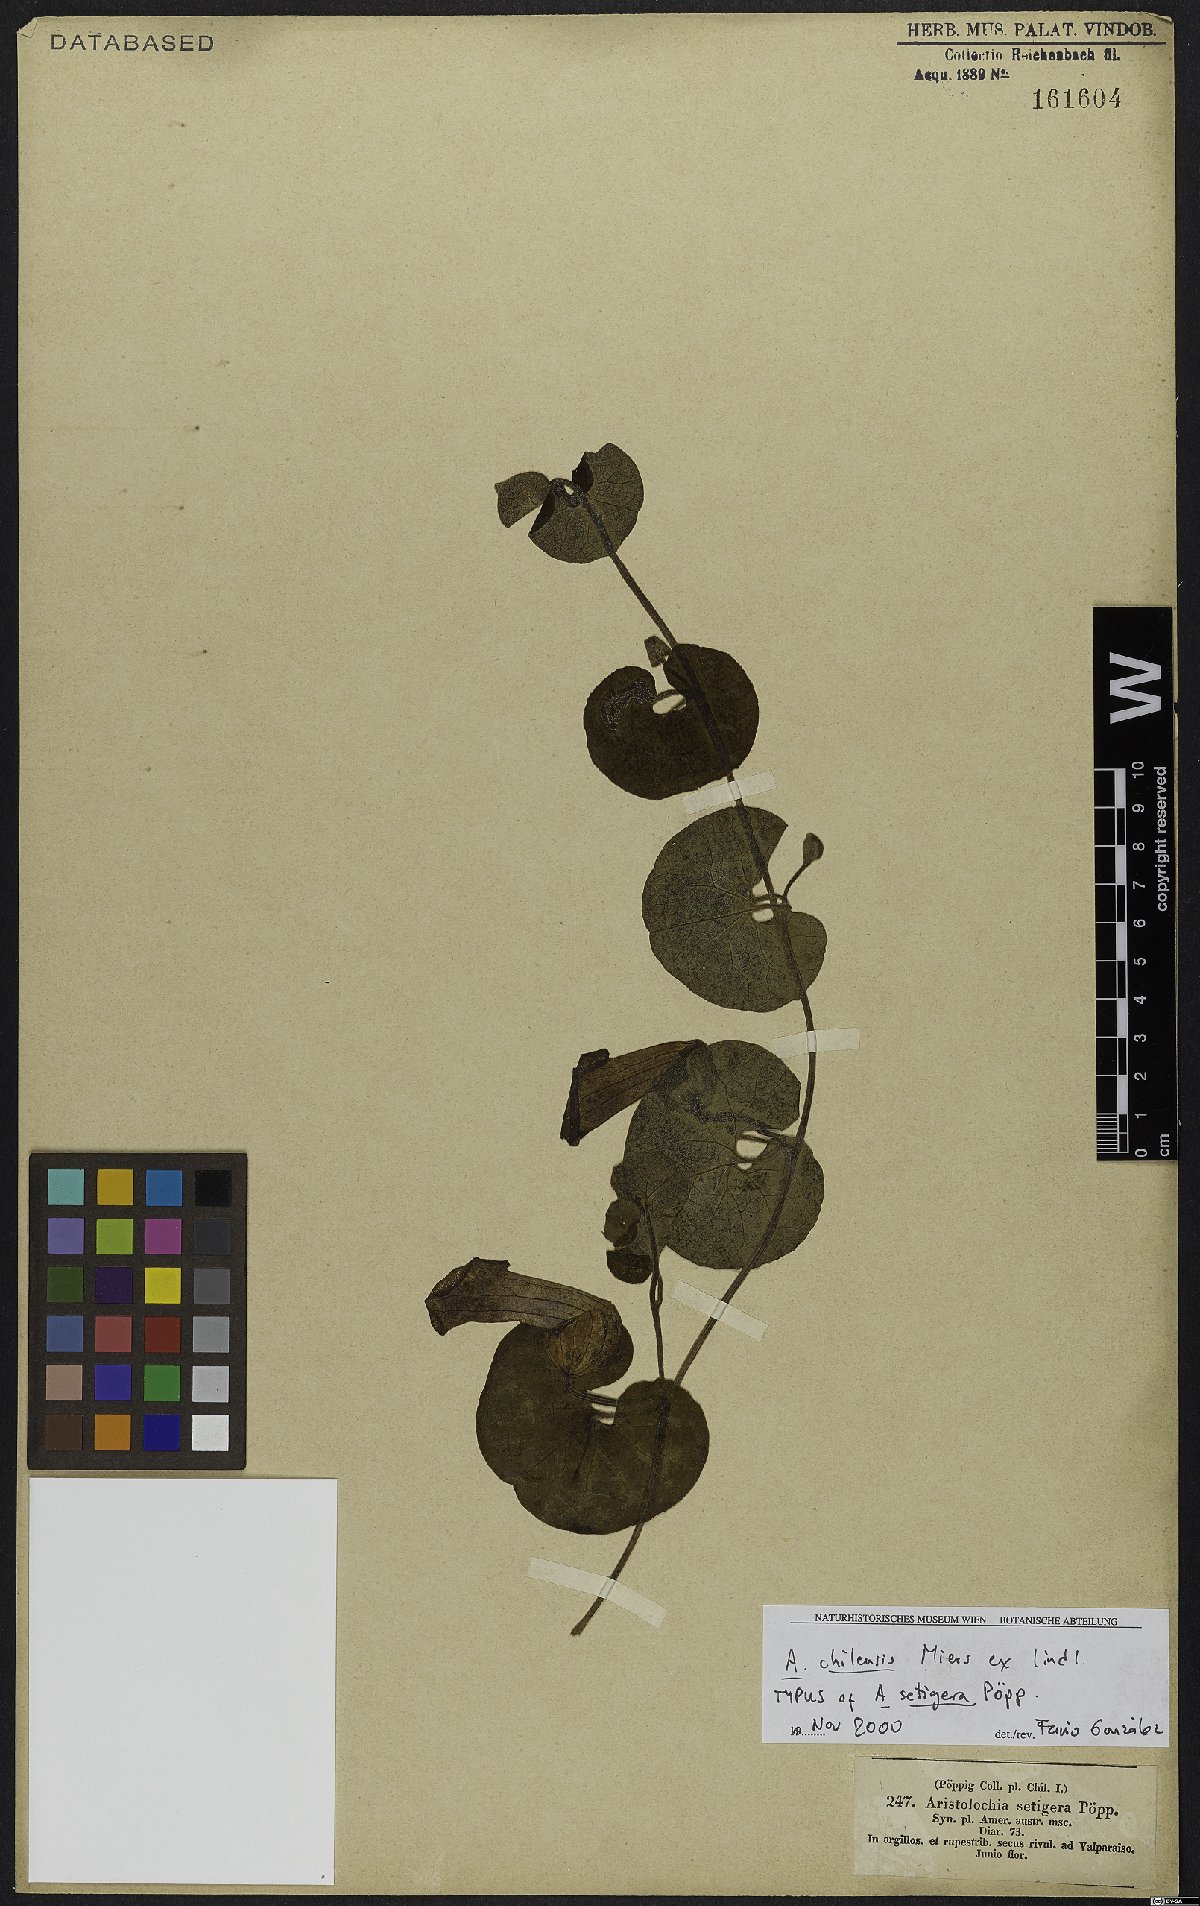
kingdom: Plantae
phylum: Tracheophyta
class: Magnoliopsida
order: Piperales
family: Aristolochiaceae
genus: Aristolochia
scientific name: Aristolochia chilensis
